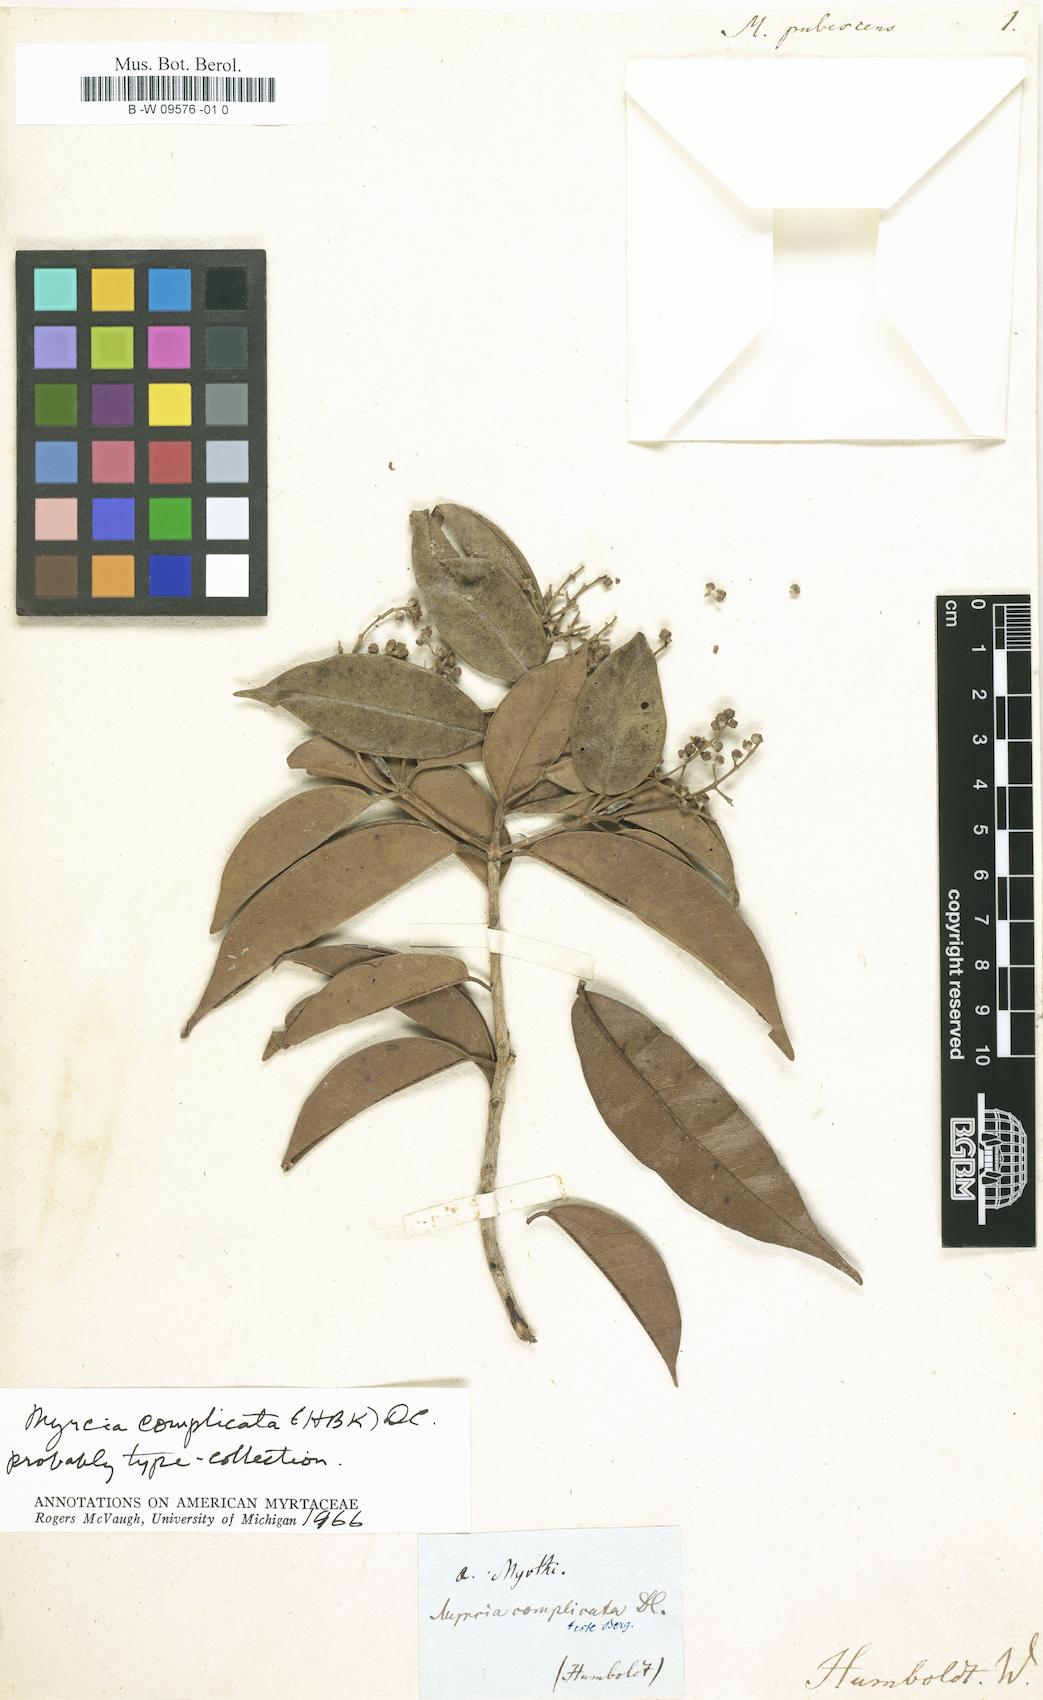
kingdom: Plantae
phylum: Tracheophyta
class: Magnoliopsida
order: Myrtales
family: Myrtaceae
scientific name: Myrtaceae
